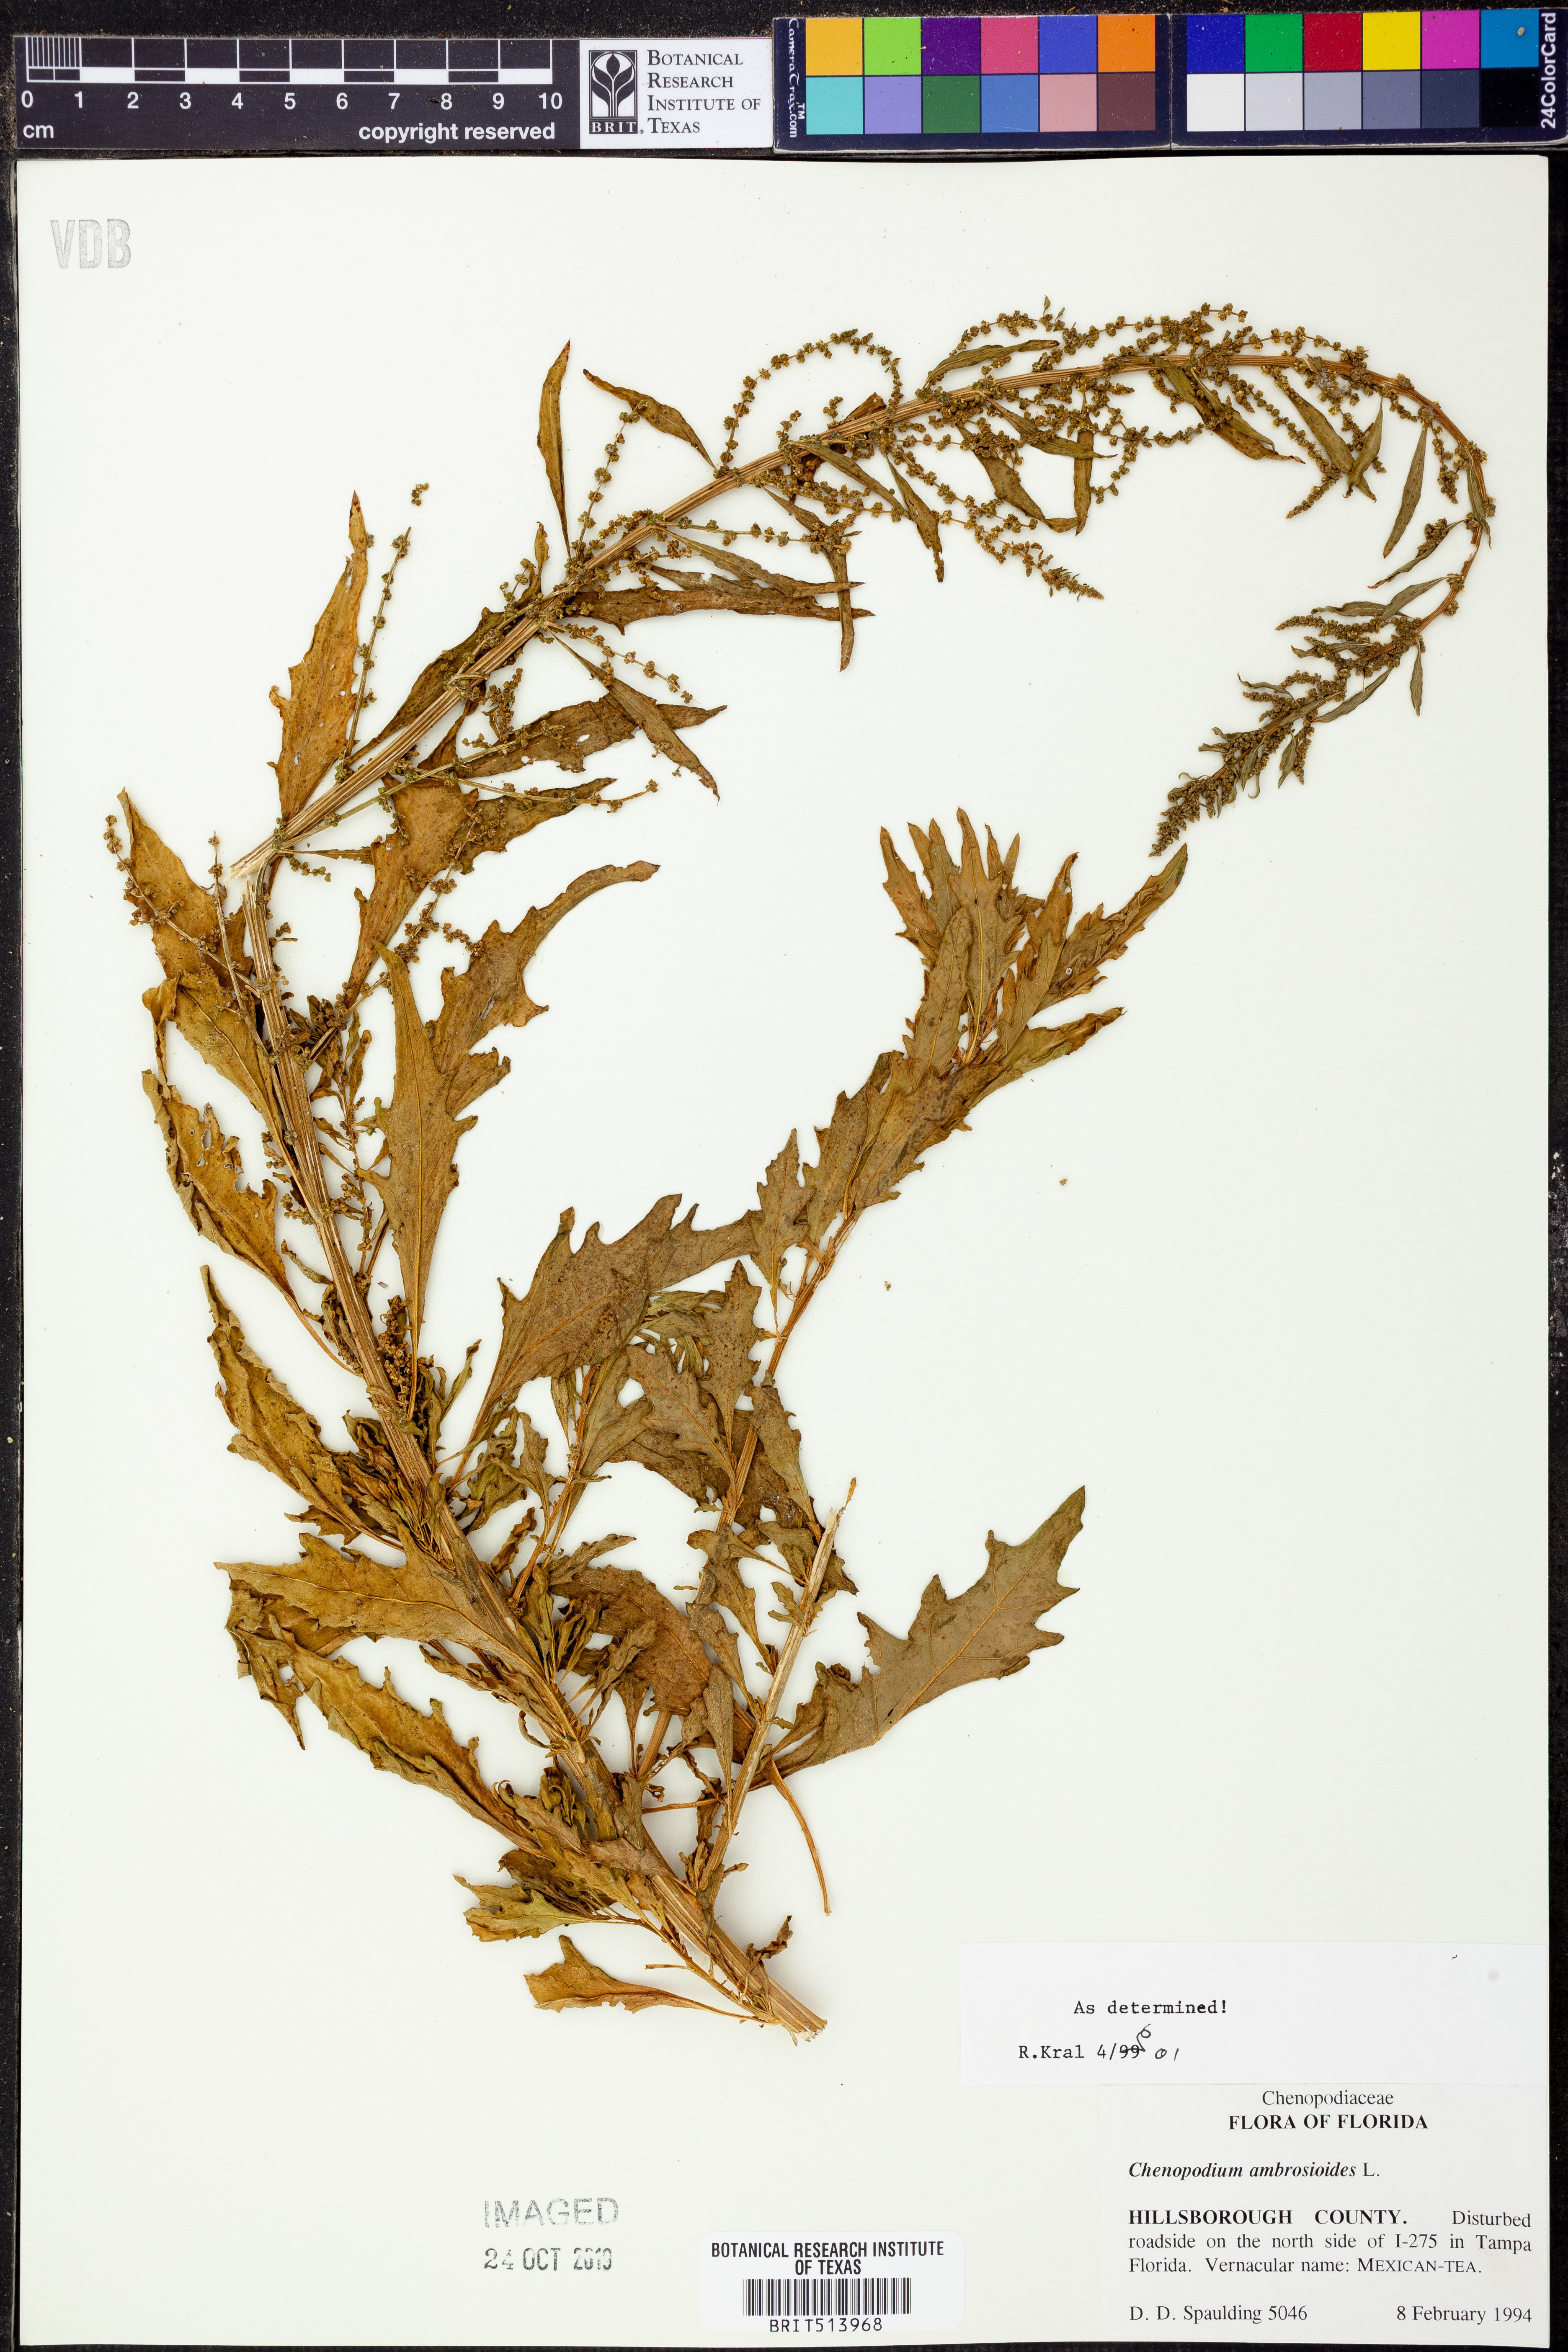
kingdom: Plantae
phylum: Tracheophyta
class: Magnoliopsida
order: Caryophyllales
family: Amaranthaceae
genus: Dysphania
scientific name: Dysphania ambrosioides
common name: Wormseed
